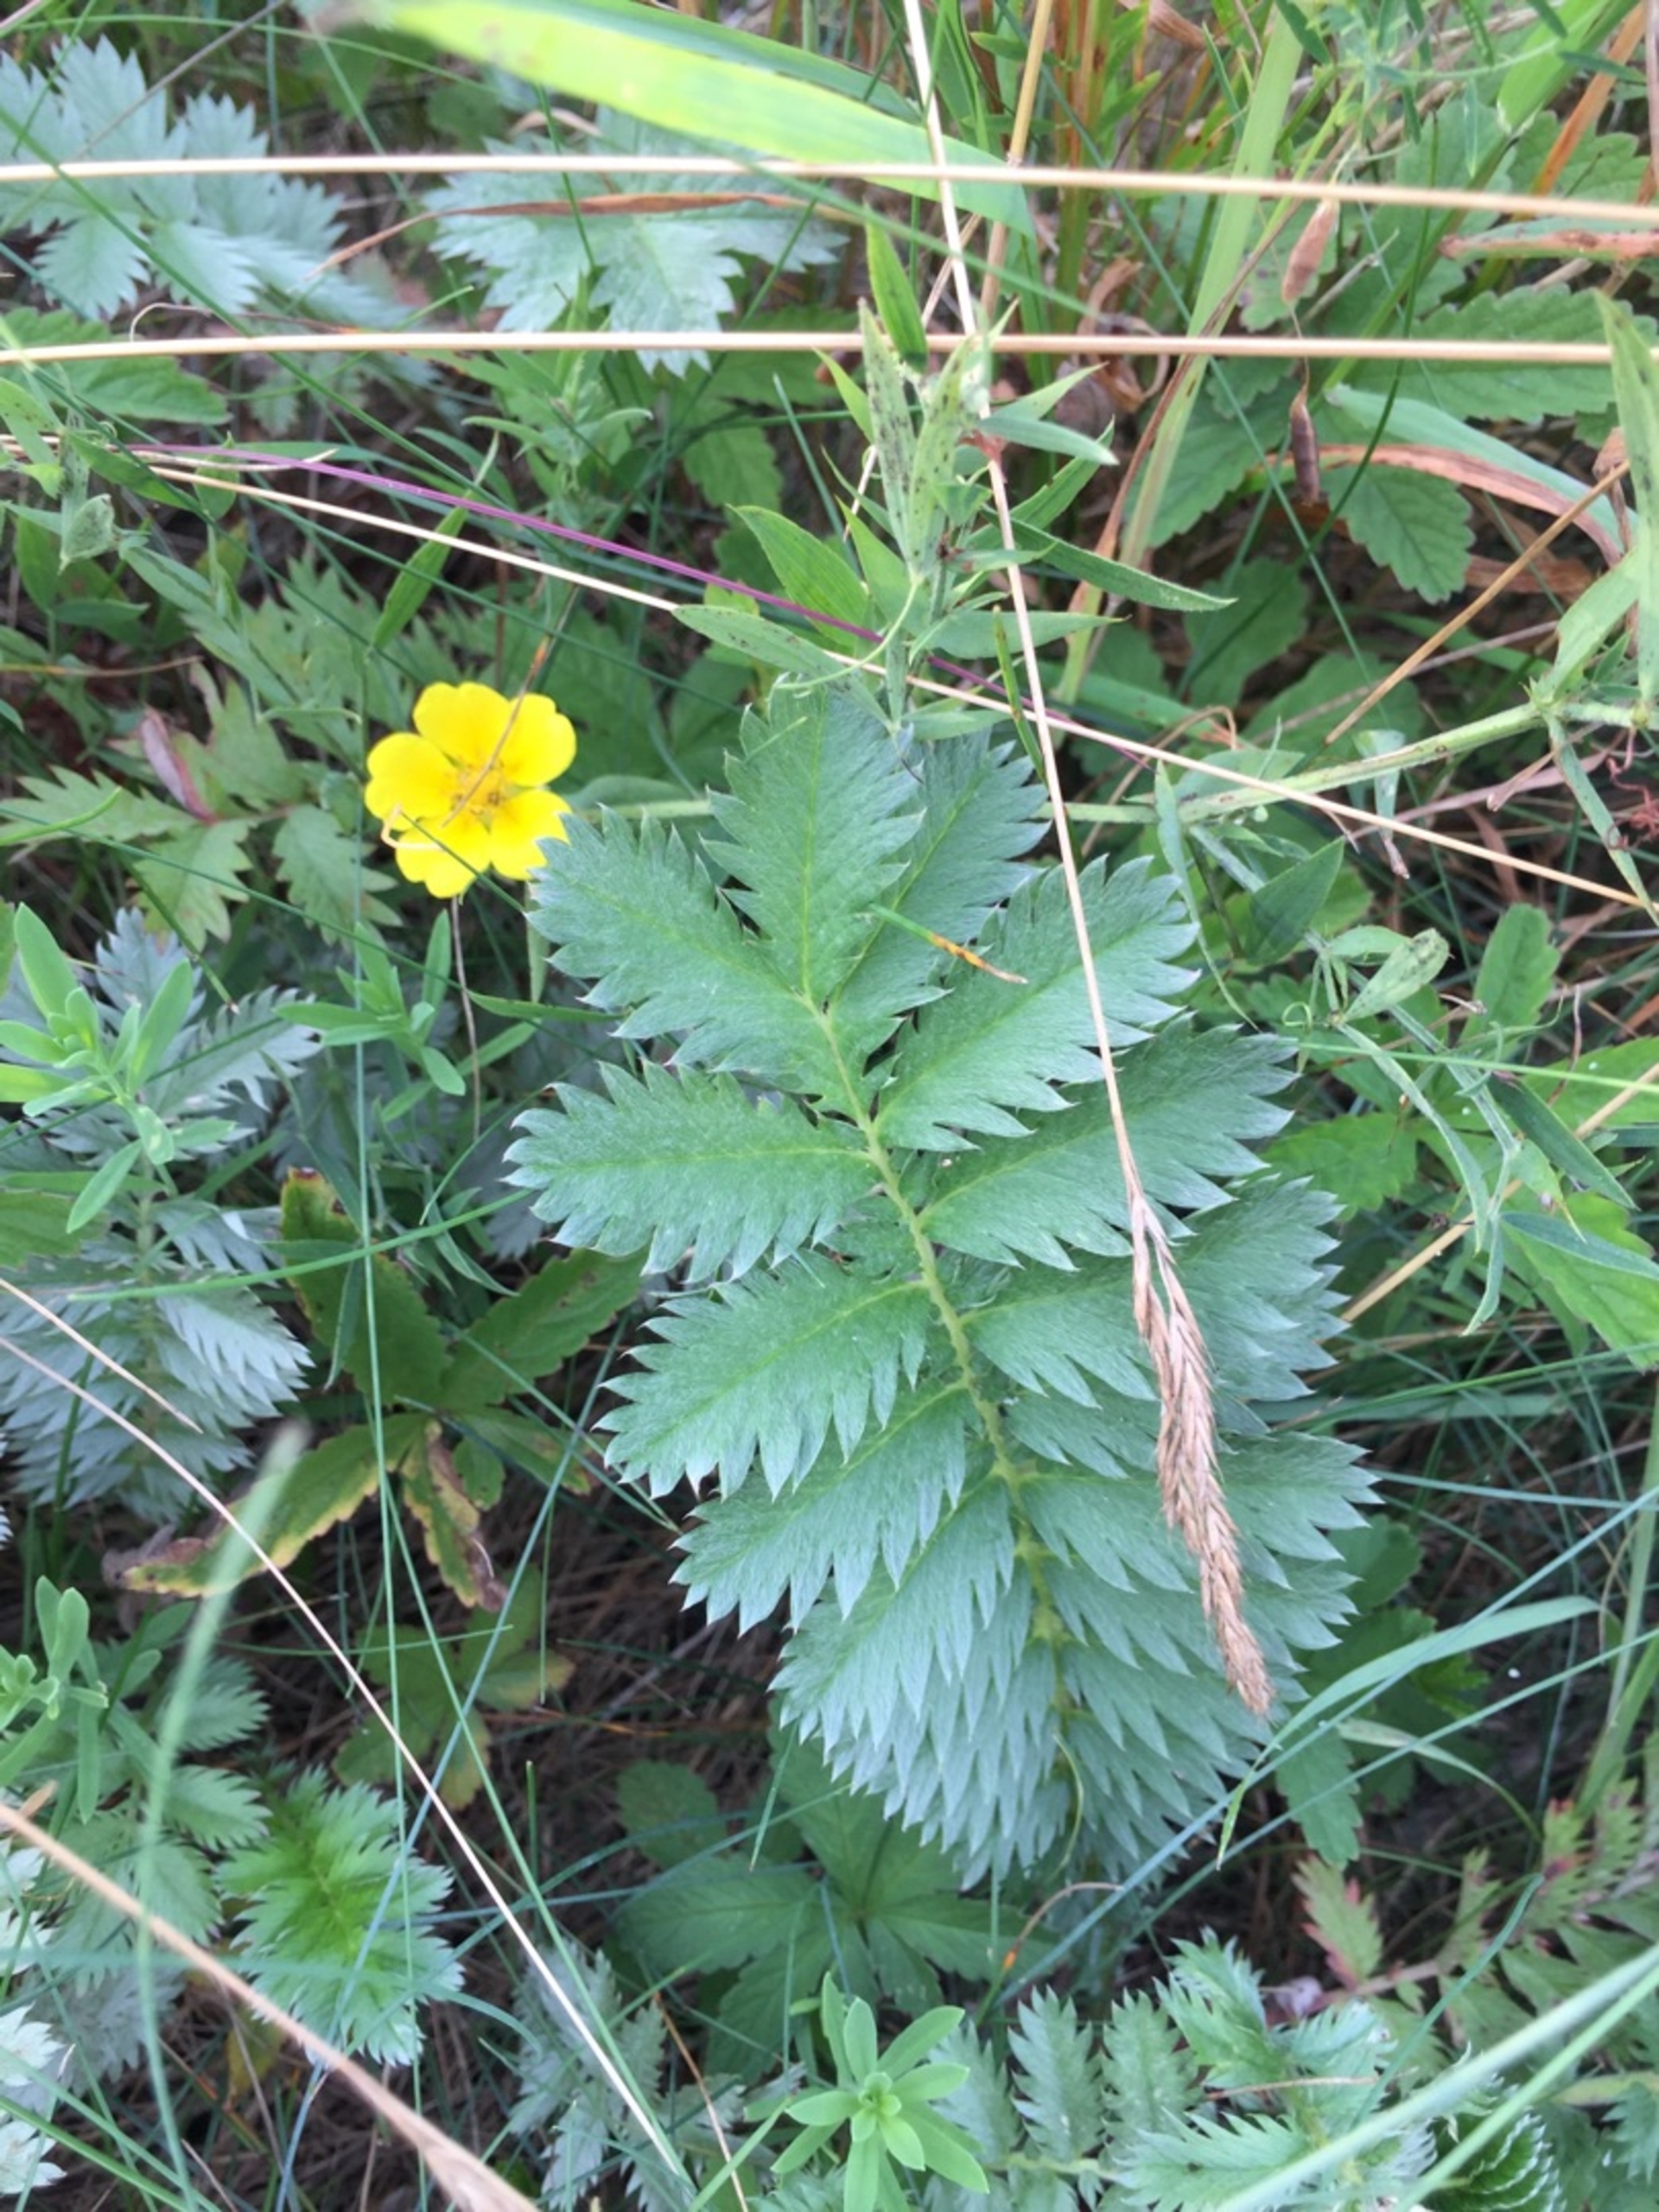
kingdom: Plantae
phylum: Tracheophyta
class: Magnoliopsida
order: Rosales
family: Rosaceae
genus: Argentina
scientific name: Argentina anserina
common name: Gåsepotentil
